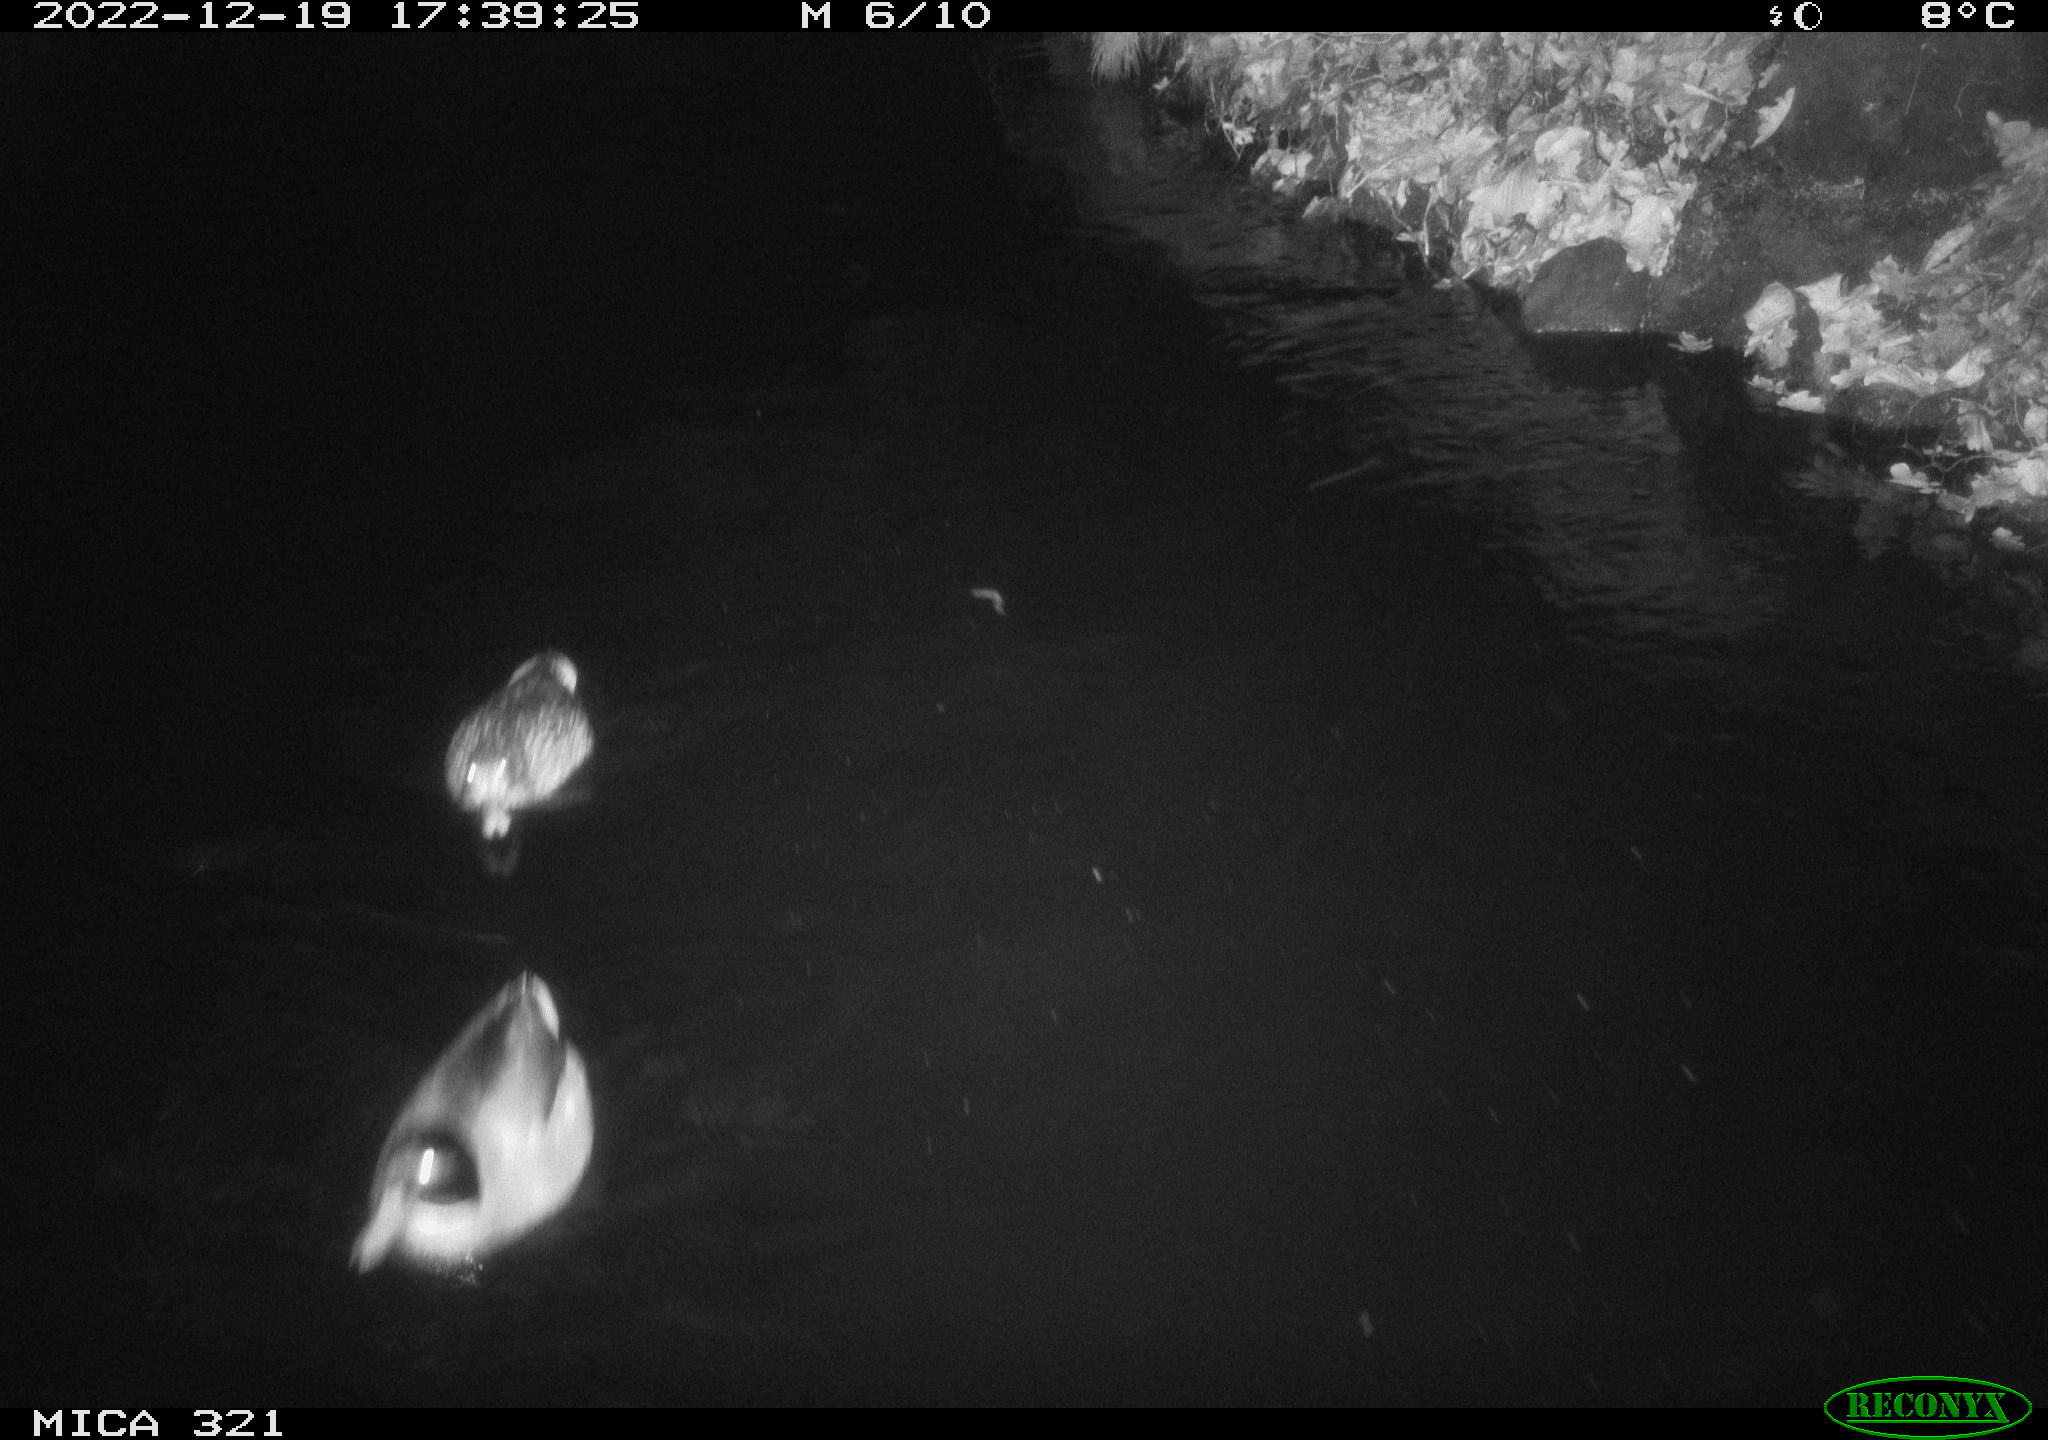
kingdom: Animalia
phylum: Chordata
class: Aves
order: Anseriformes
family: Anatidae
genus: Anas
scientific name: Anas
